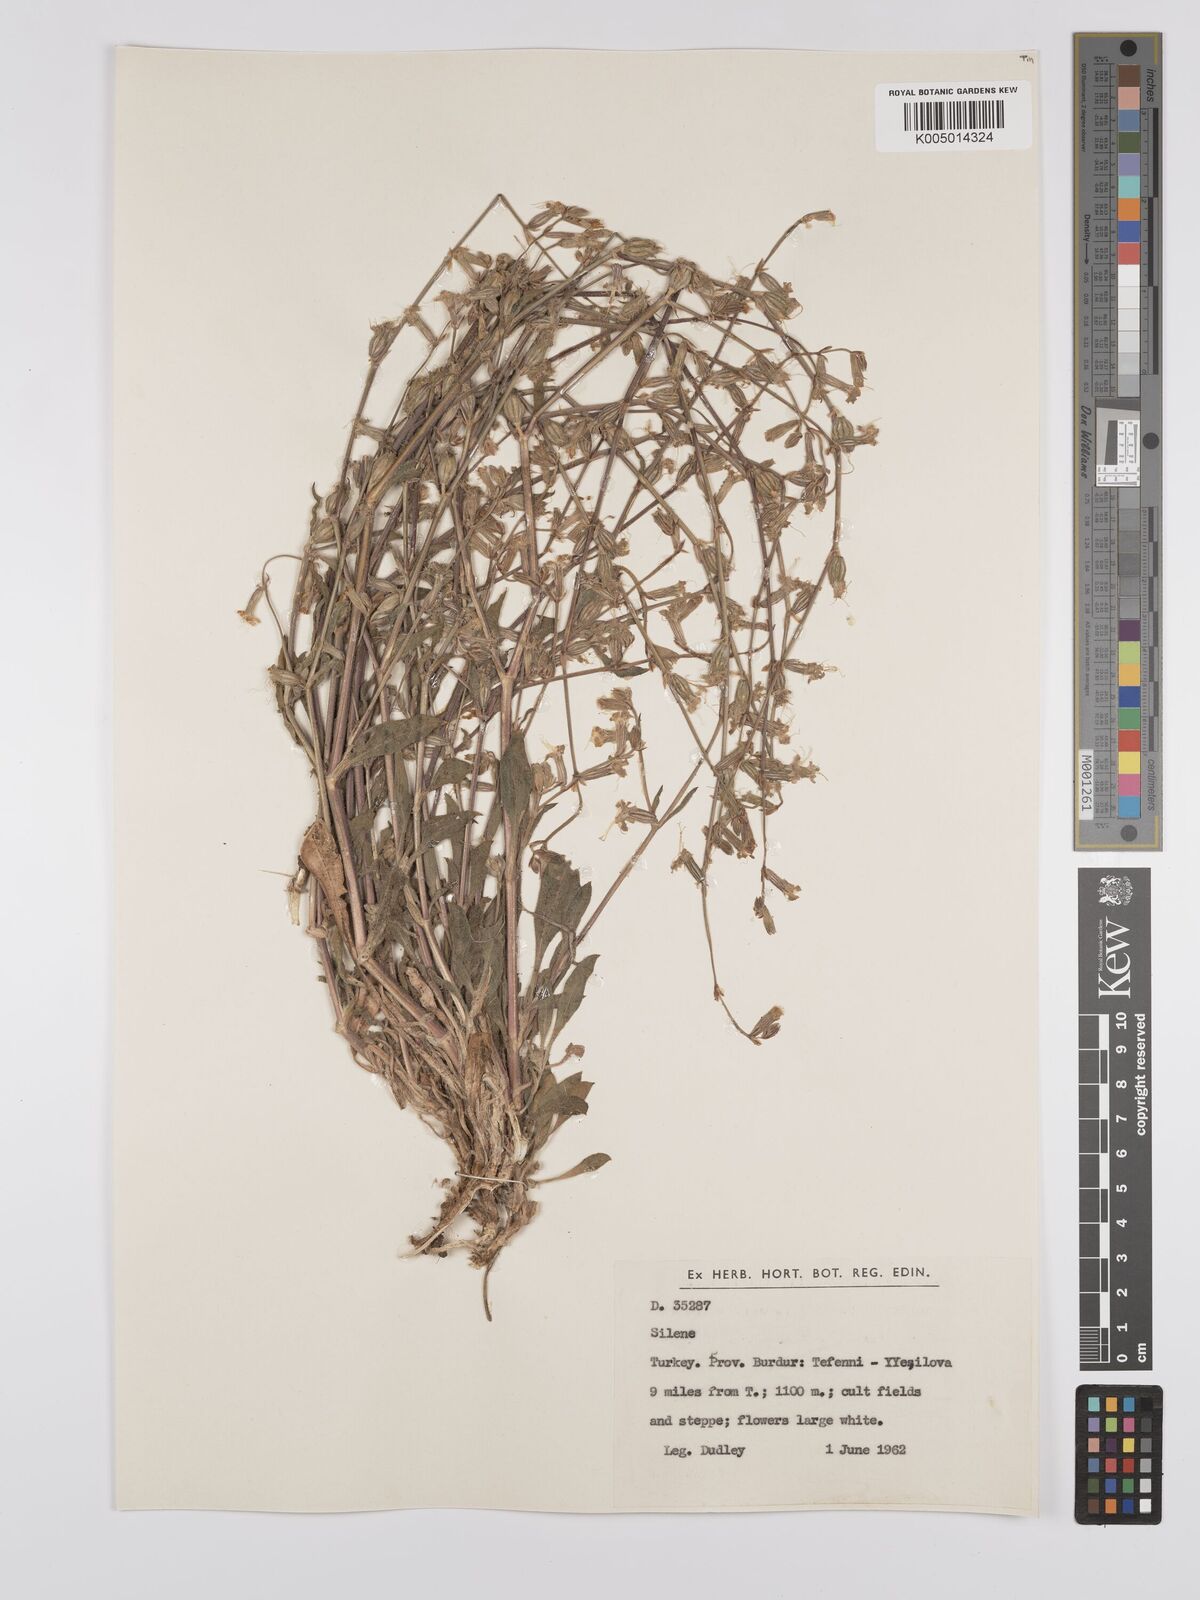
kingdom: Plantae
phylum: Tracheophyta
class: Magnoliopsida
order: Caryophyllales
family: Caryophyllaceae
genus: Silene
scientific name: Silene
